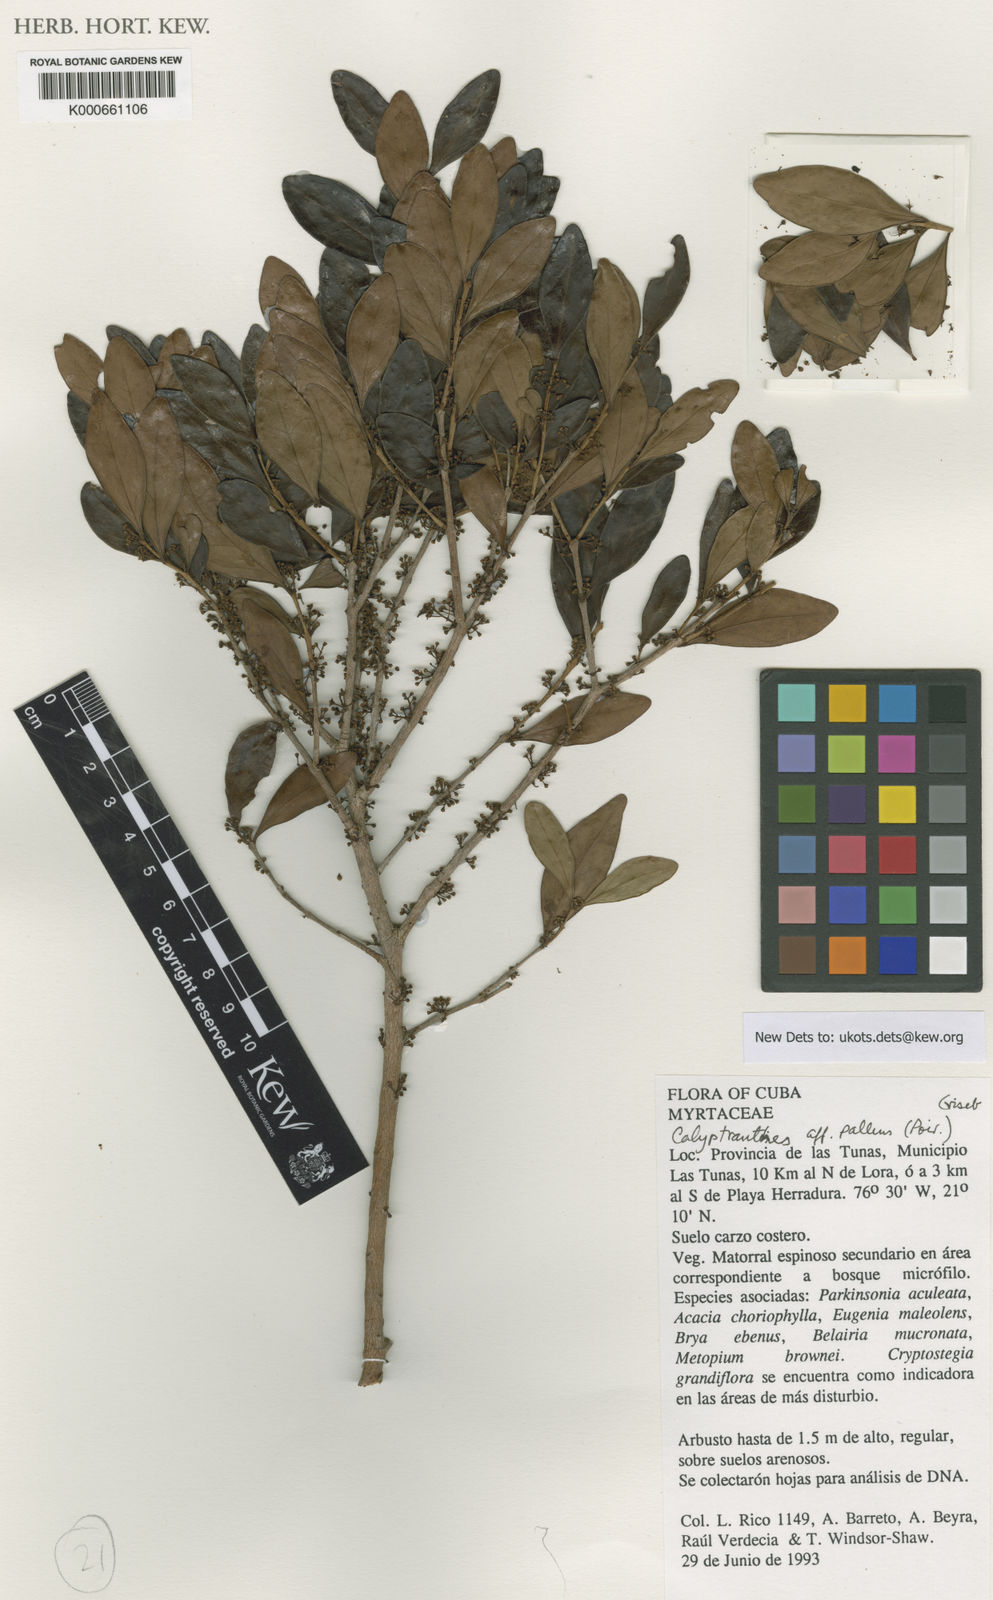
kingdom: Plantae
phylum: Tracheophyta
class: Magnoliopsida
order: Myrtales
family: Myrtaceae
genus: Myrcia
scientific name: Myrcia neopallens
